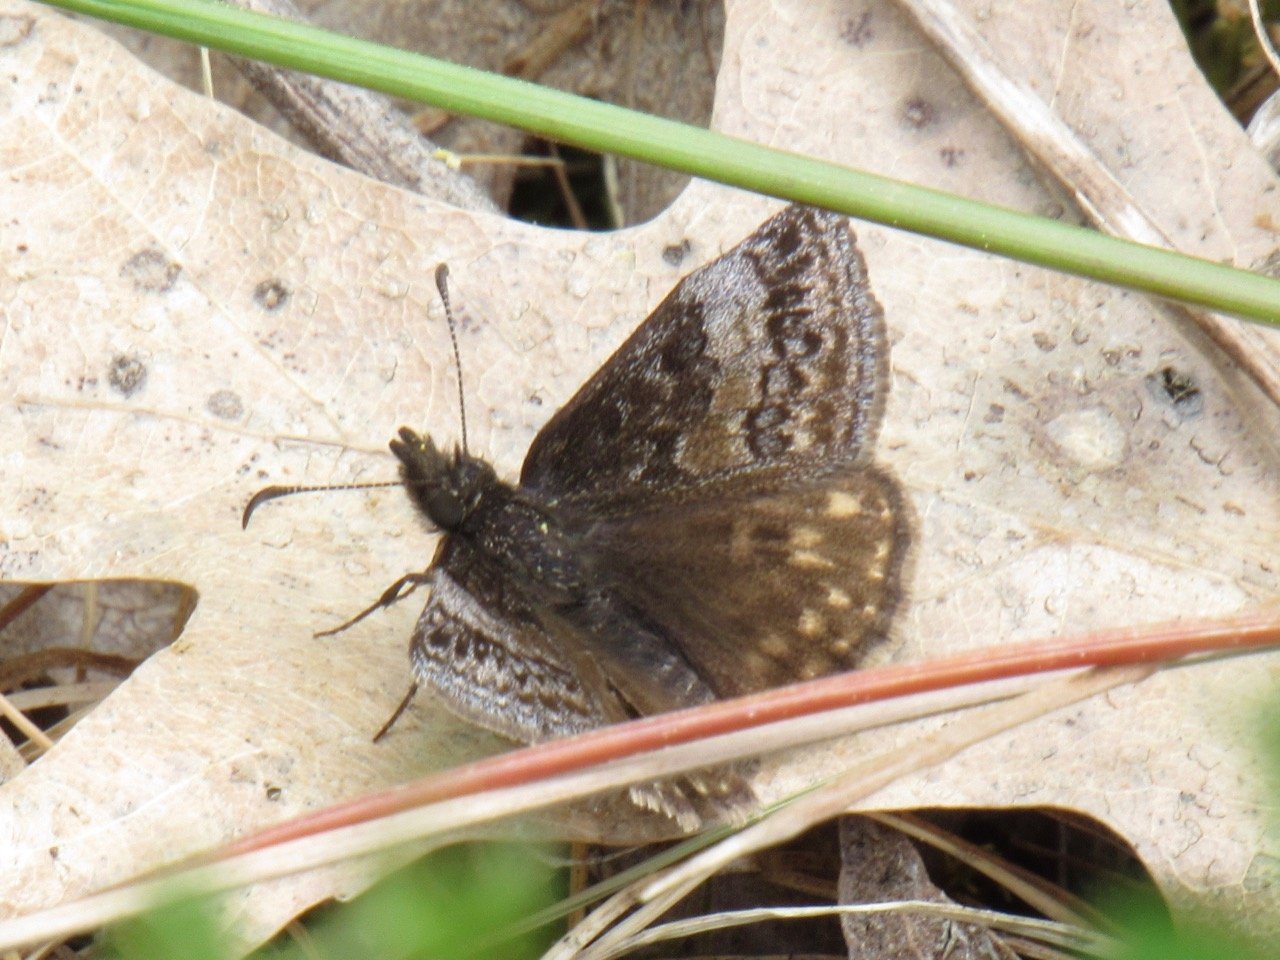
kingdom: Animalia
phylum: Arthropoda
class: Insecta
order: Lepidoptera
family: Hesperiidae
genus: Erynnis
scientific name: Erynnis icelus
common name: Dreamy Duskywing
